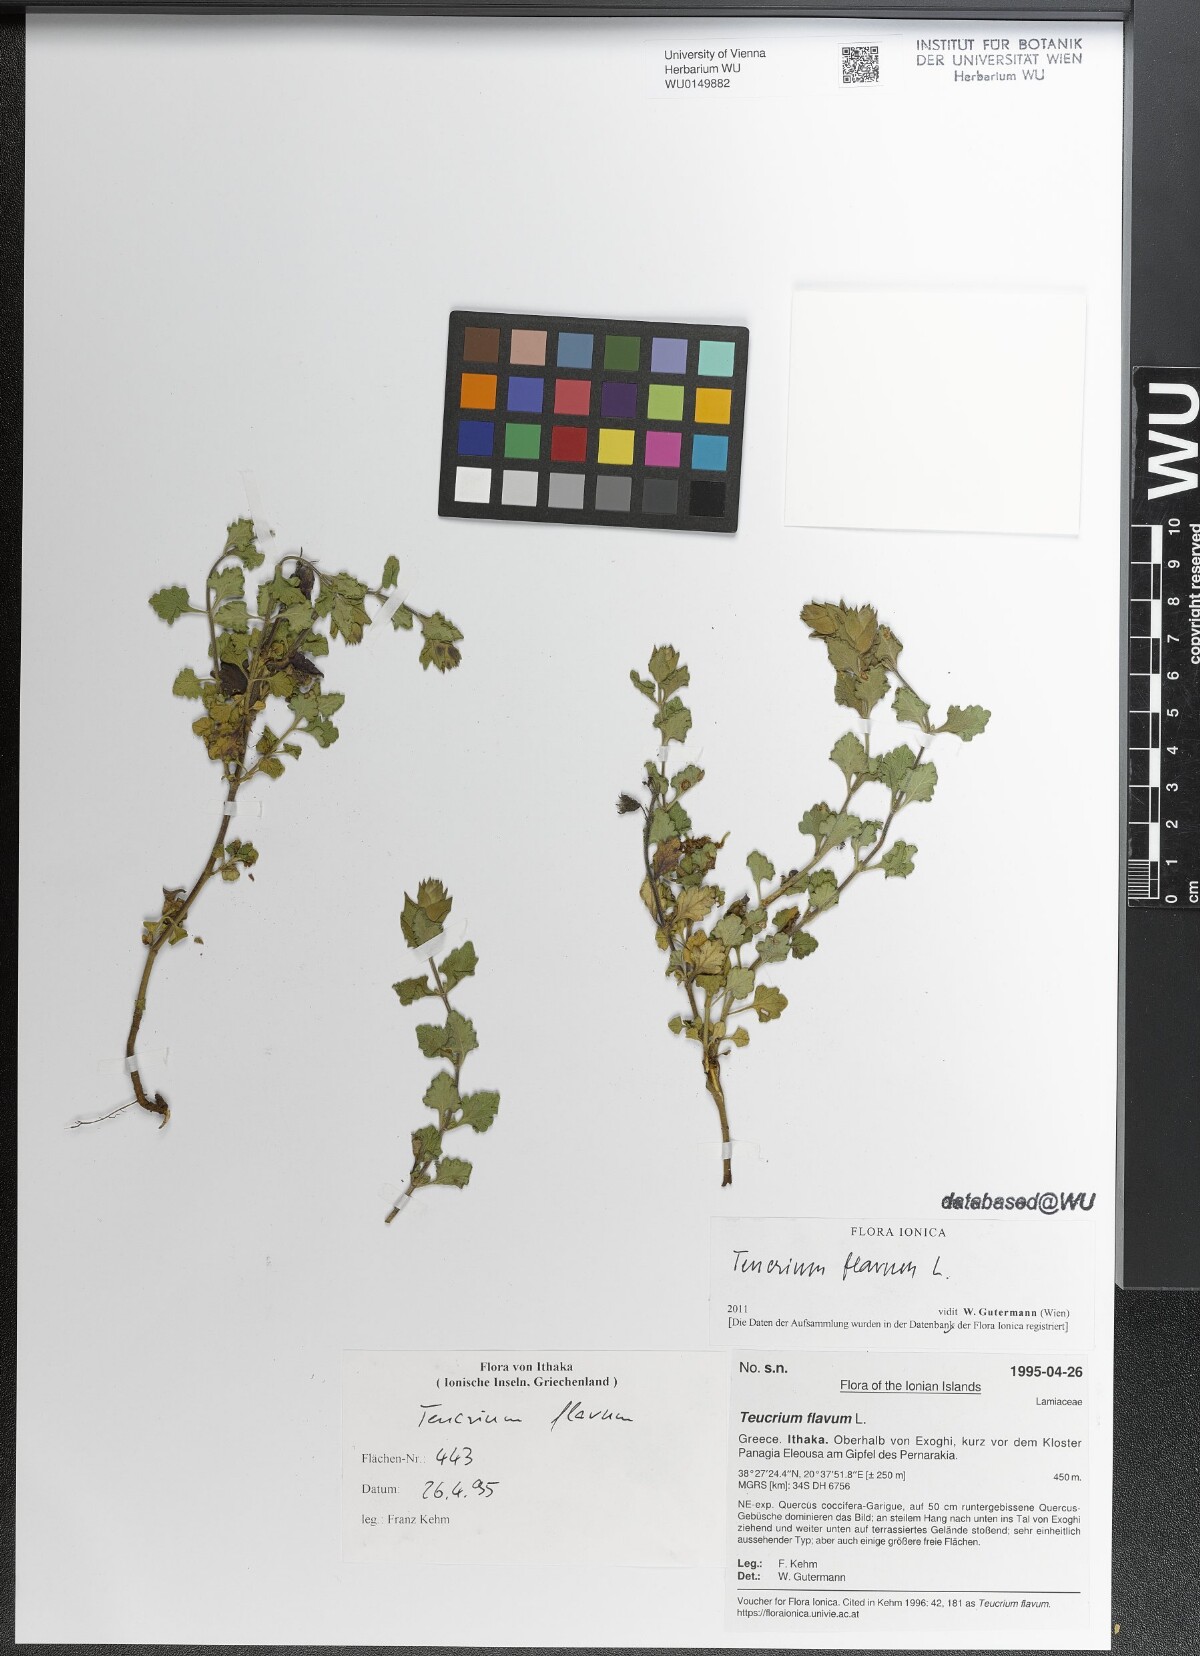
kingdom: Plantae
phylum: Tracheophyta
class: Magnoliopsida
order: Lamiales
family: Lamiaceae
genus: Teucrium
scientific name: Teucrium flavum
